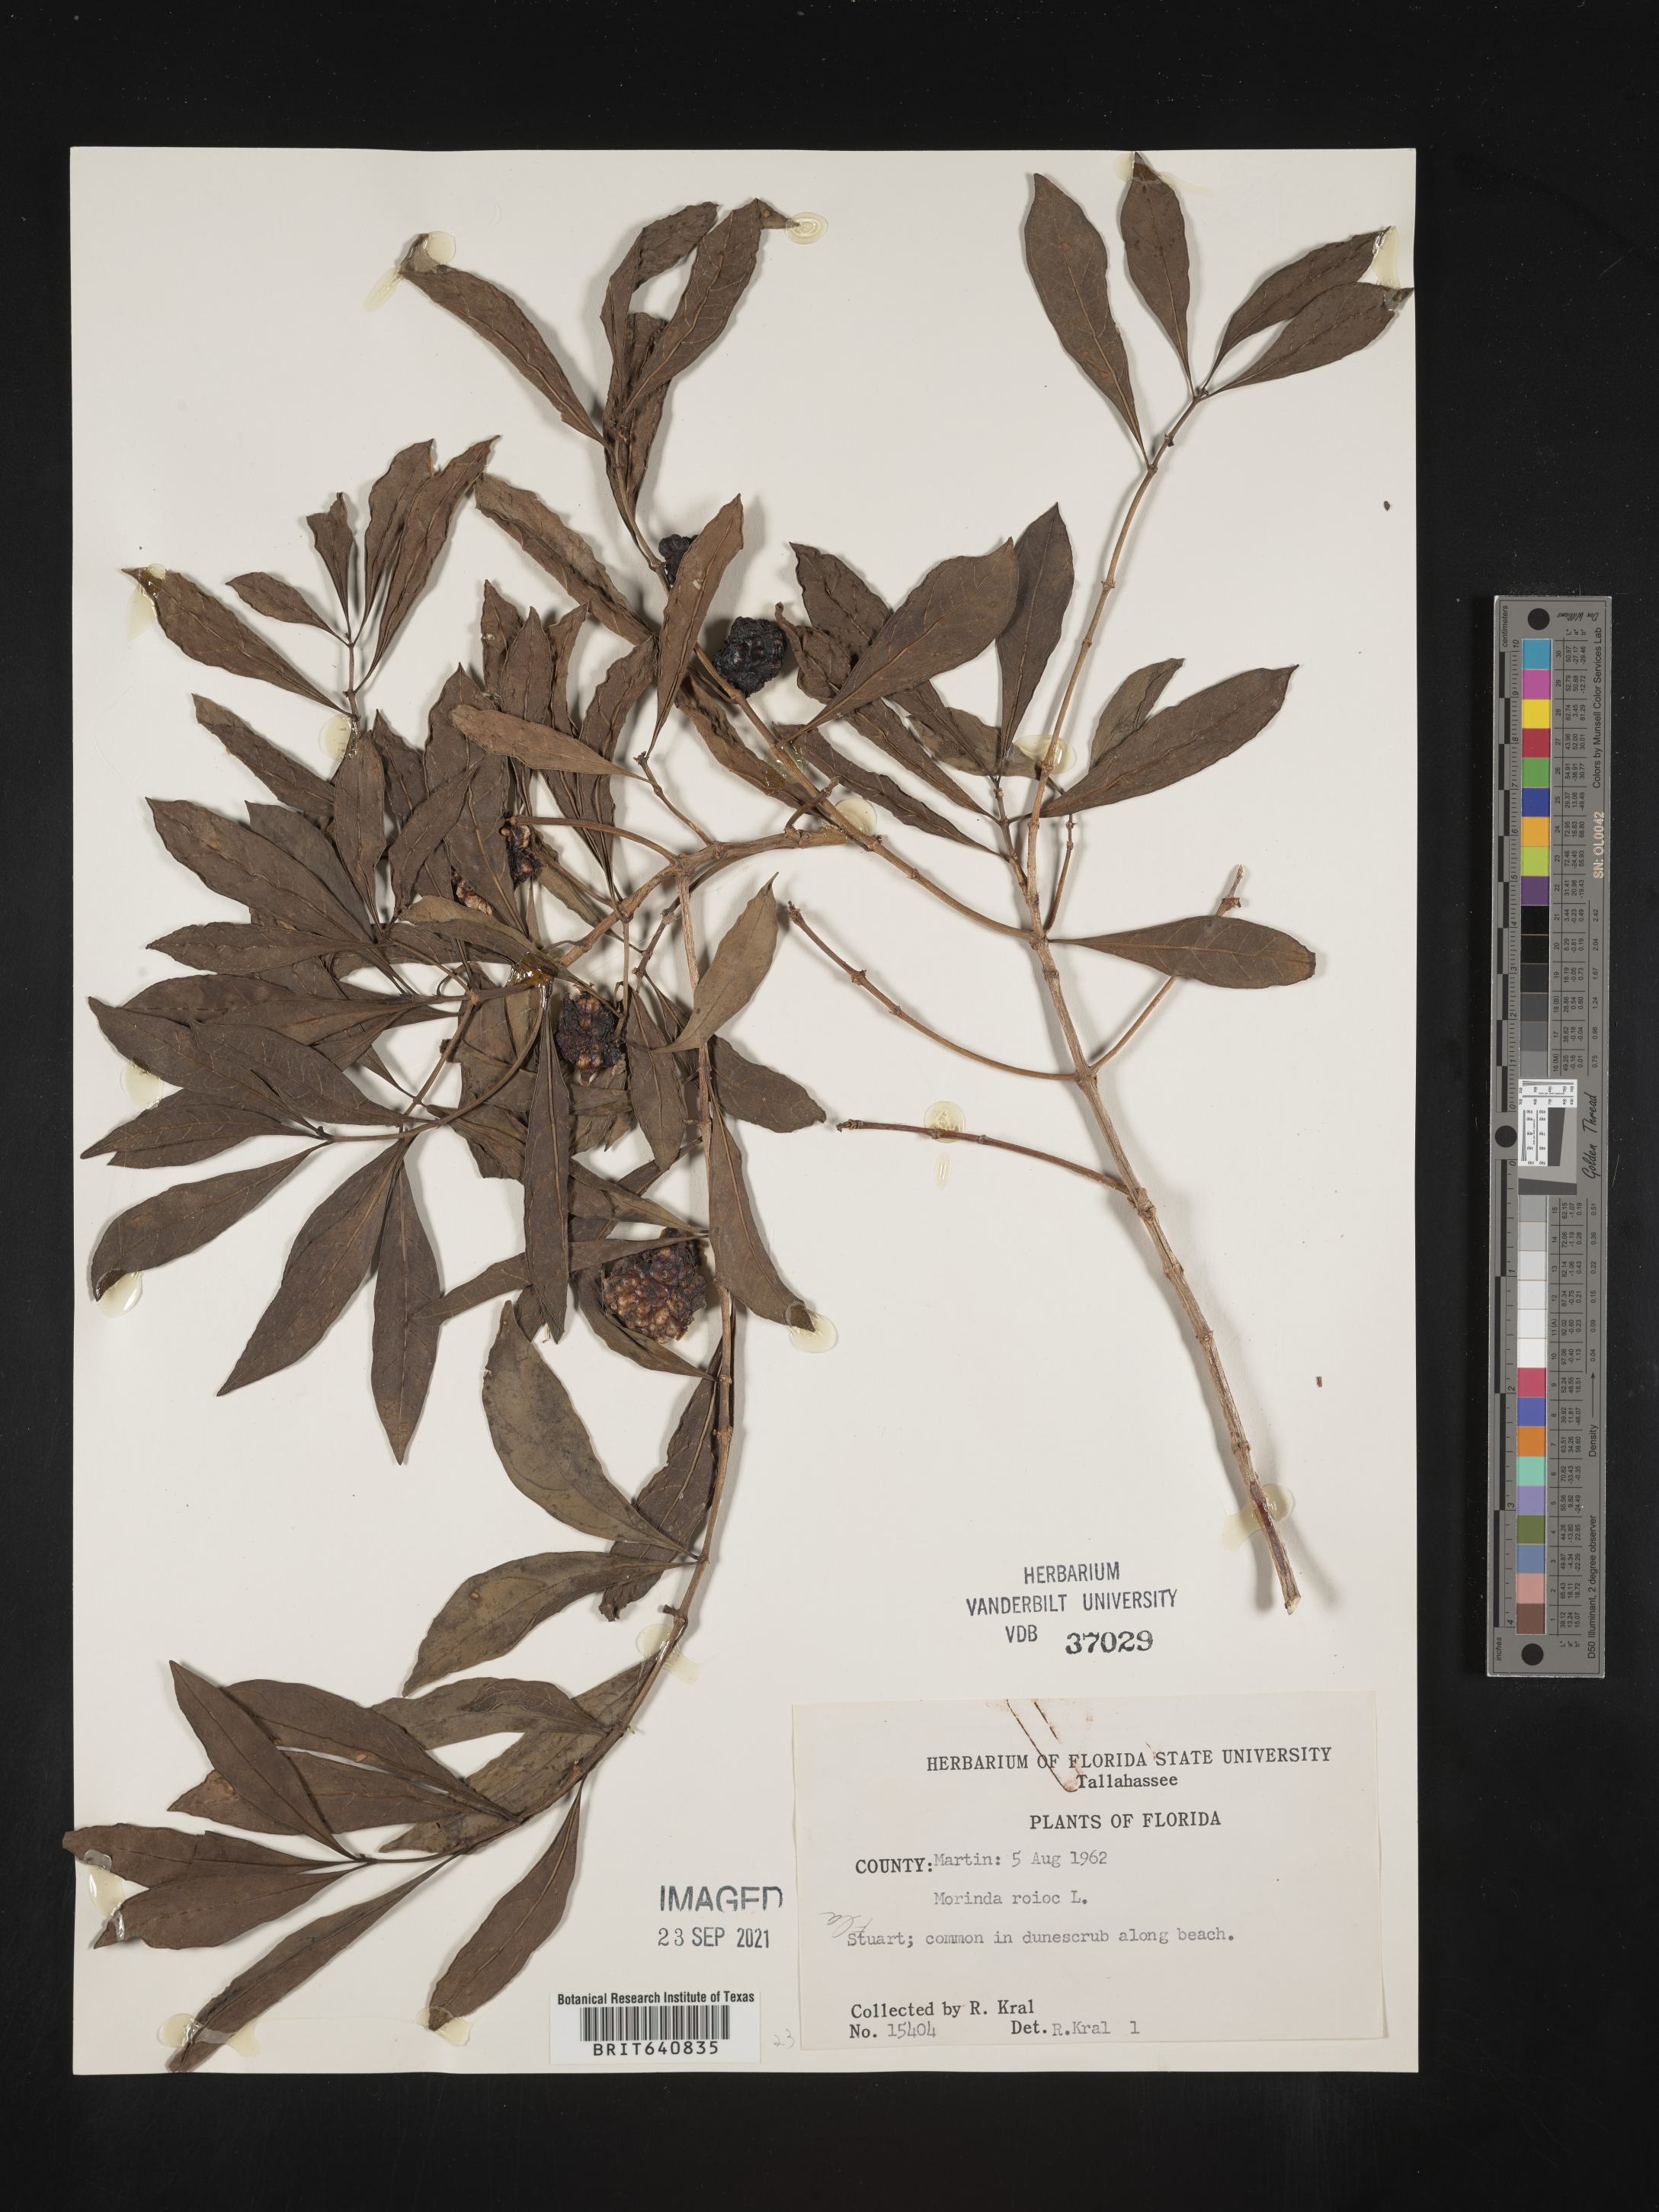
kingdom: Plantae
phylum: Tracheophyta
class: Magnoliopsida
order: Gentianales
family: Rubiaceae
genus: Morinda
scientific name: Morinda royoc
